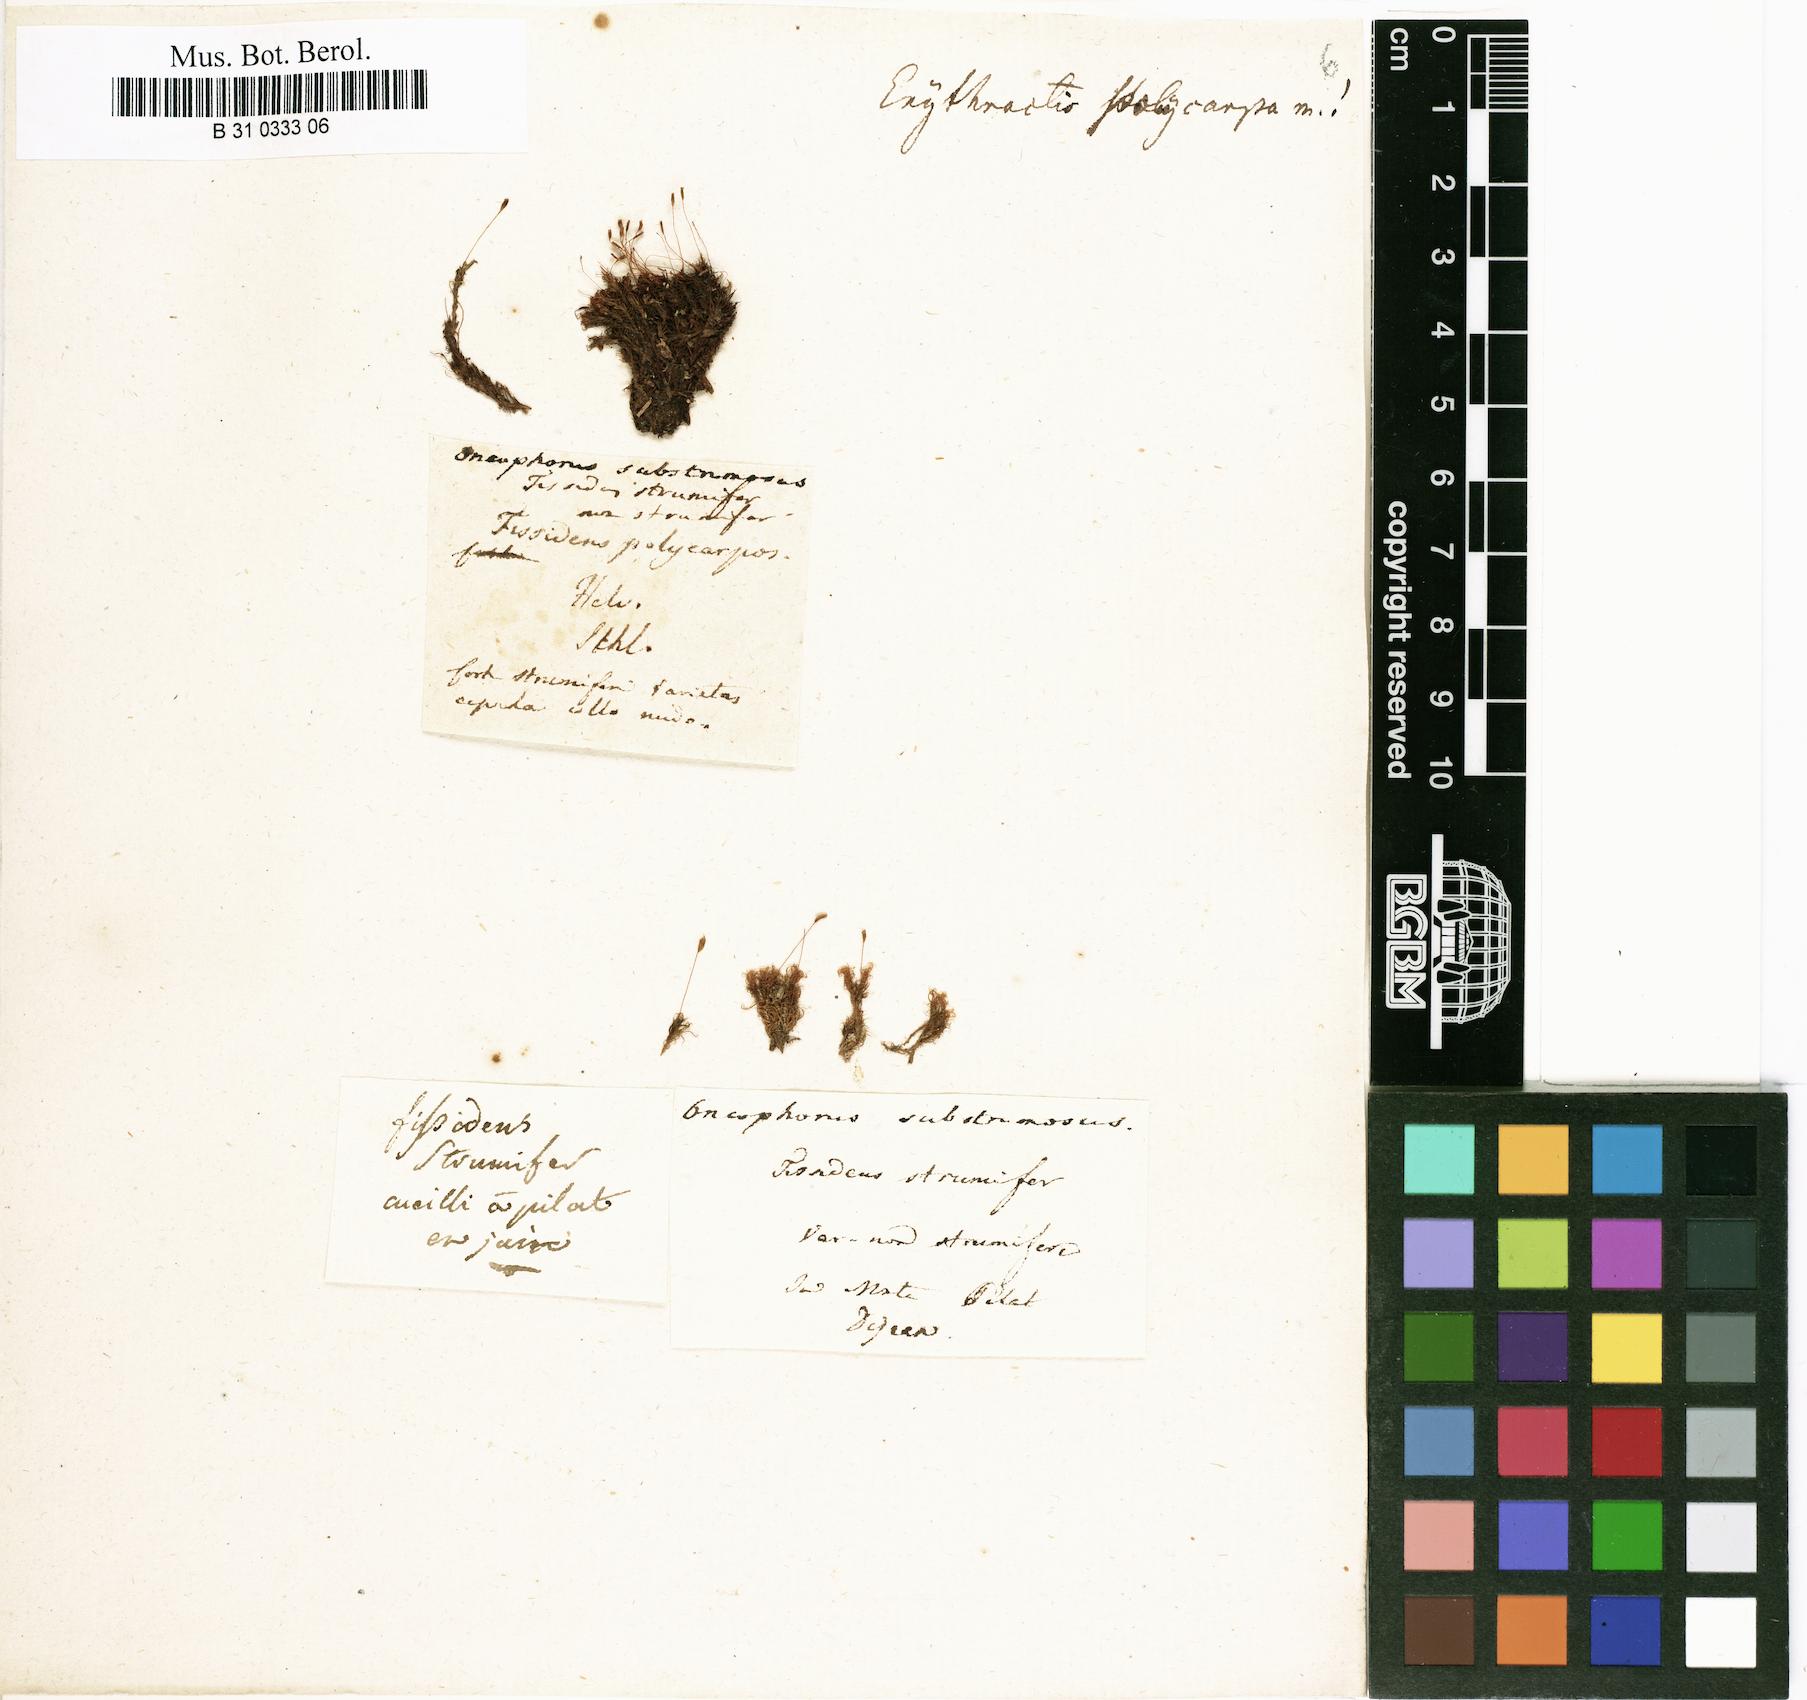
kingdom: Plantae
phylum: Bryophyta
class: Bryopsida
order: Dicranales
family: Rhabdoweisiaceae
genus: Cynodontium
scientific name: Cynodontium strumiferum
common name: Swollen dogtooth moss
